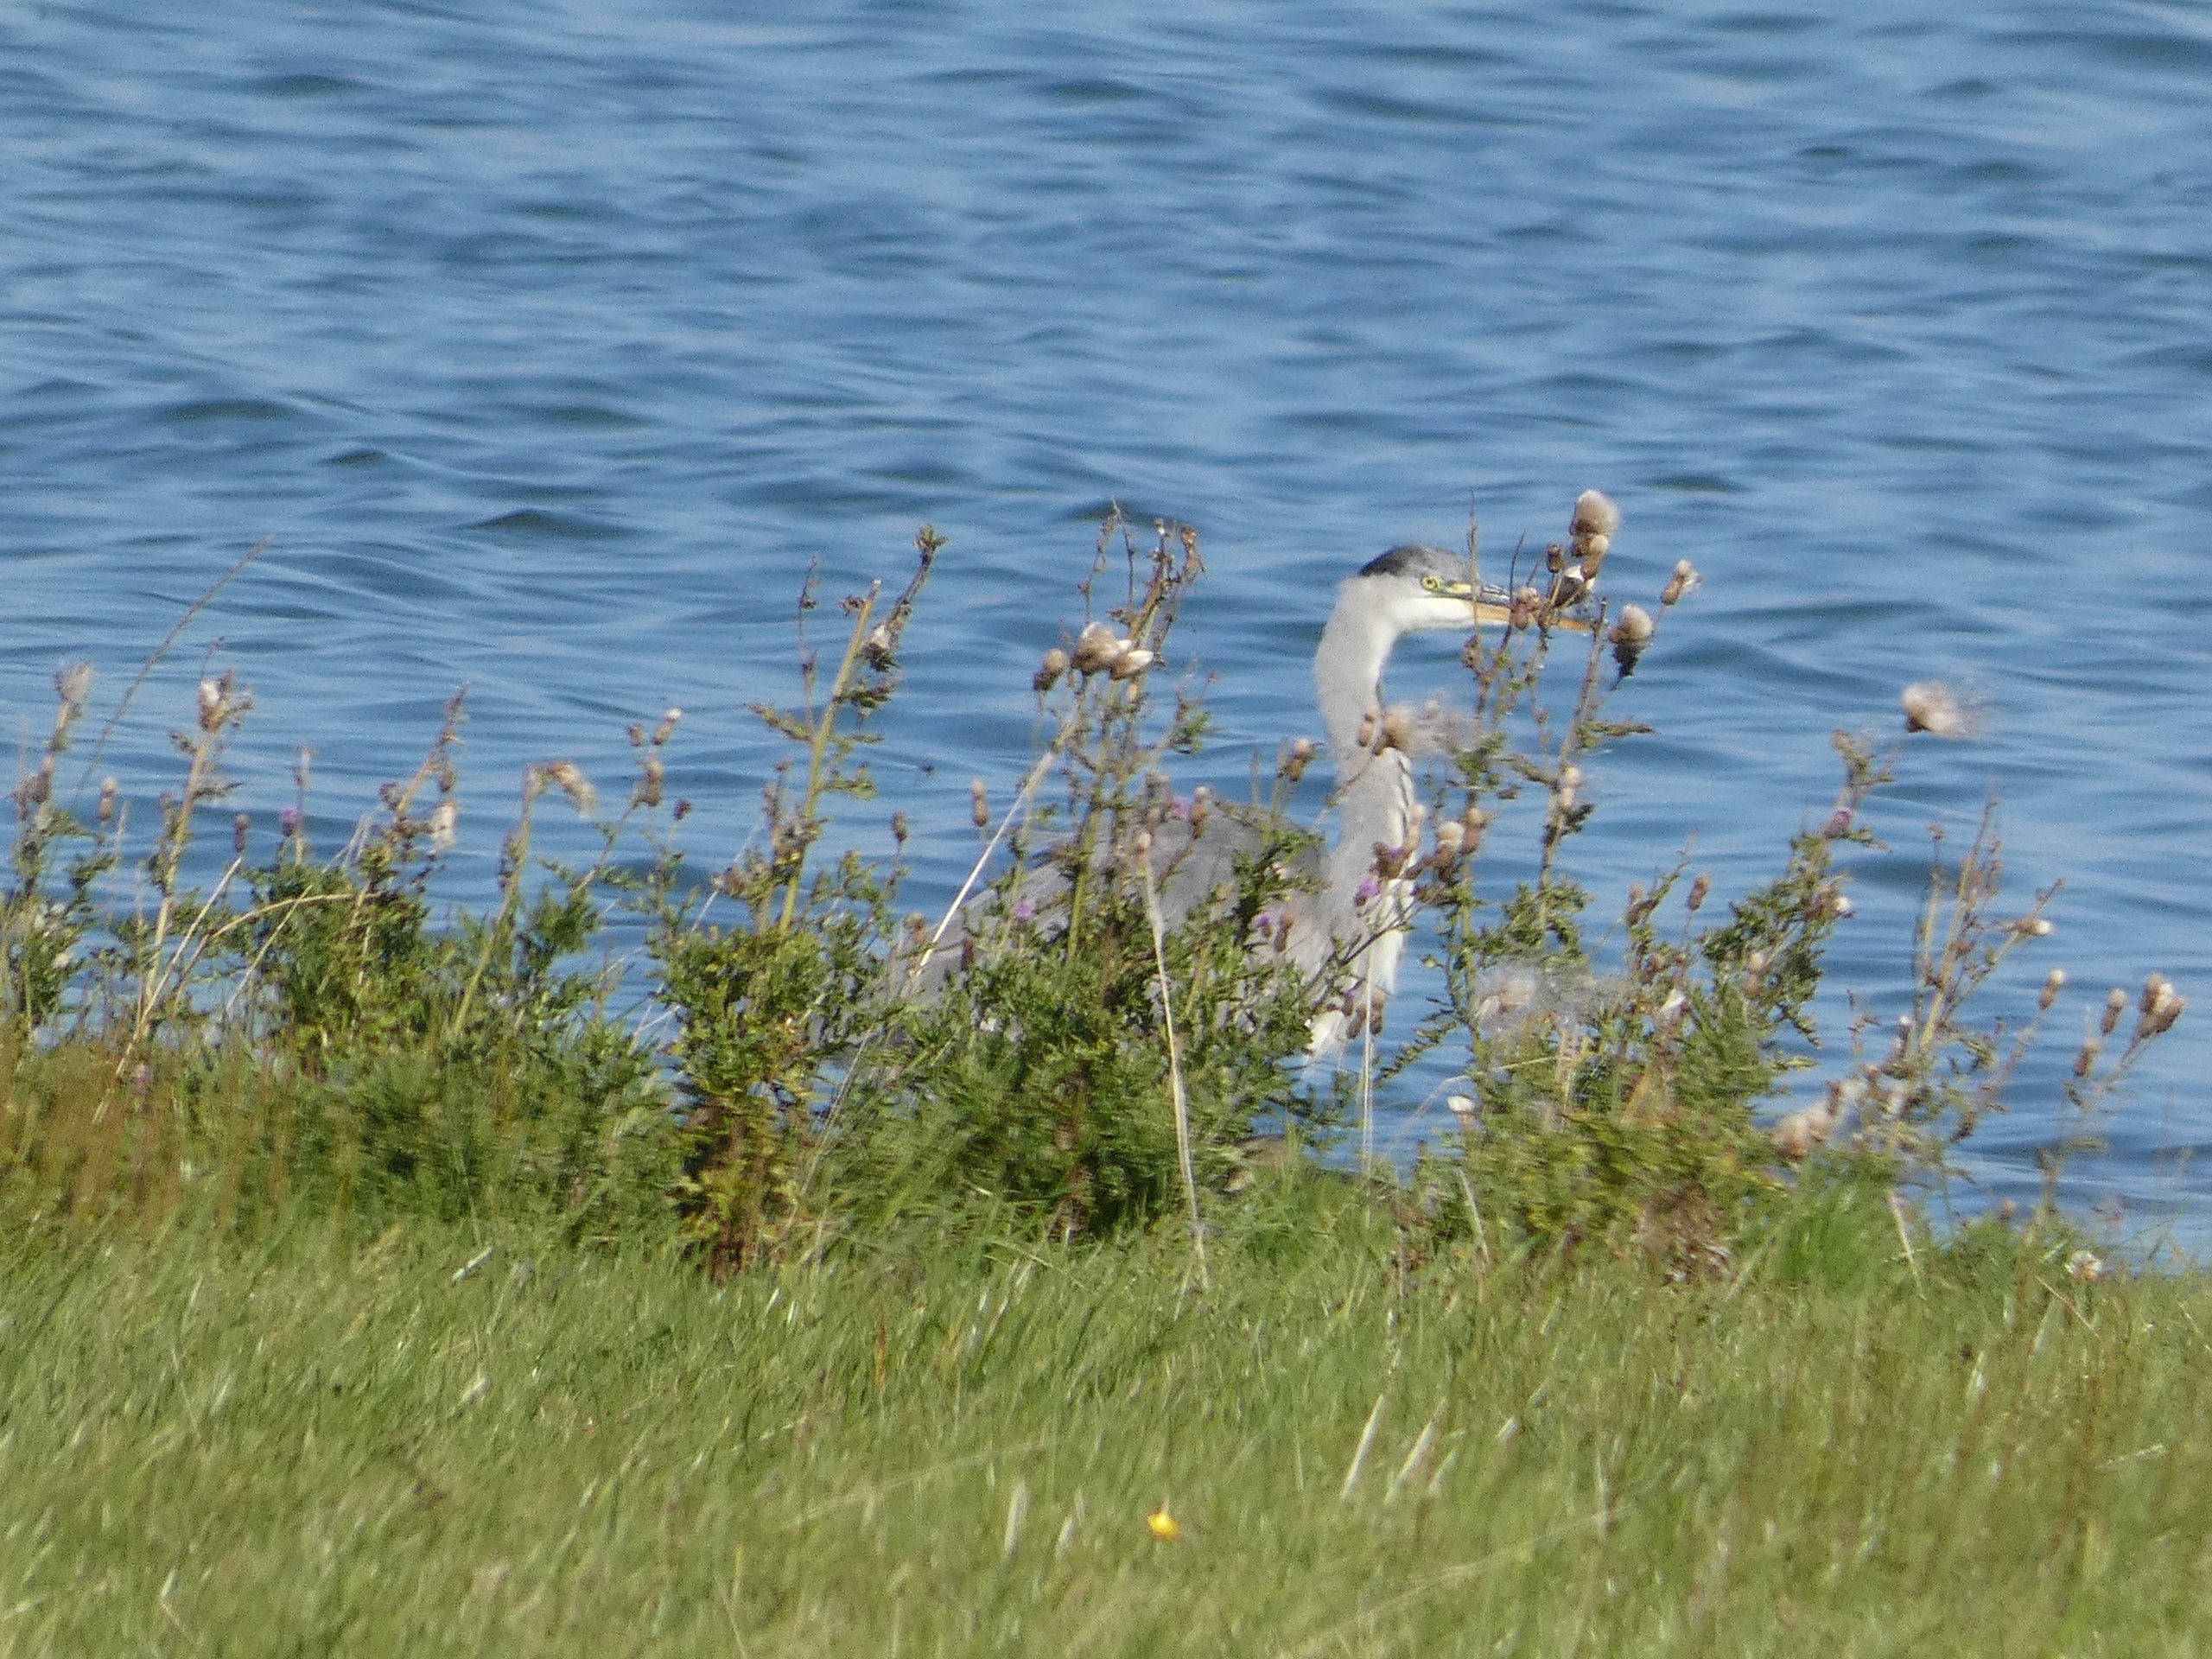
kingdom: Animalia
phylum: Chordata
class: Aves
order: Pelecaniformes
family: Ardeidae
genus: Ardea
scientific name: Ardea cinerea
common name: Fiskehejre
